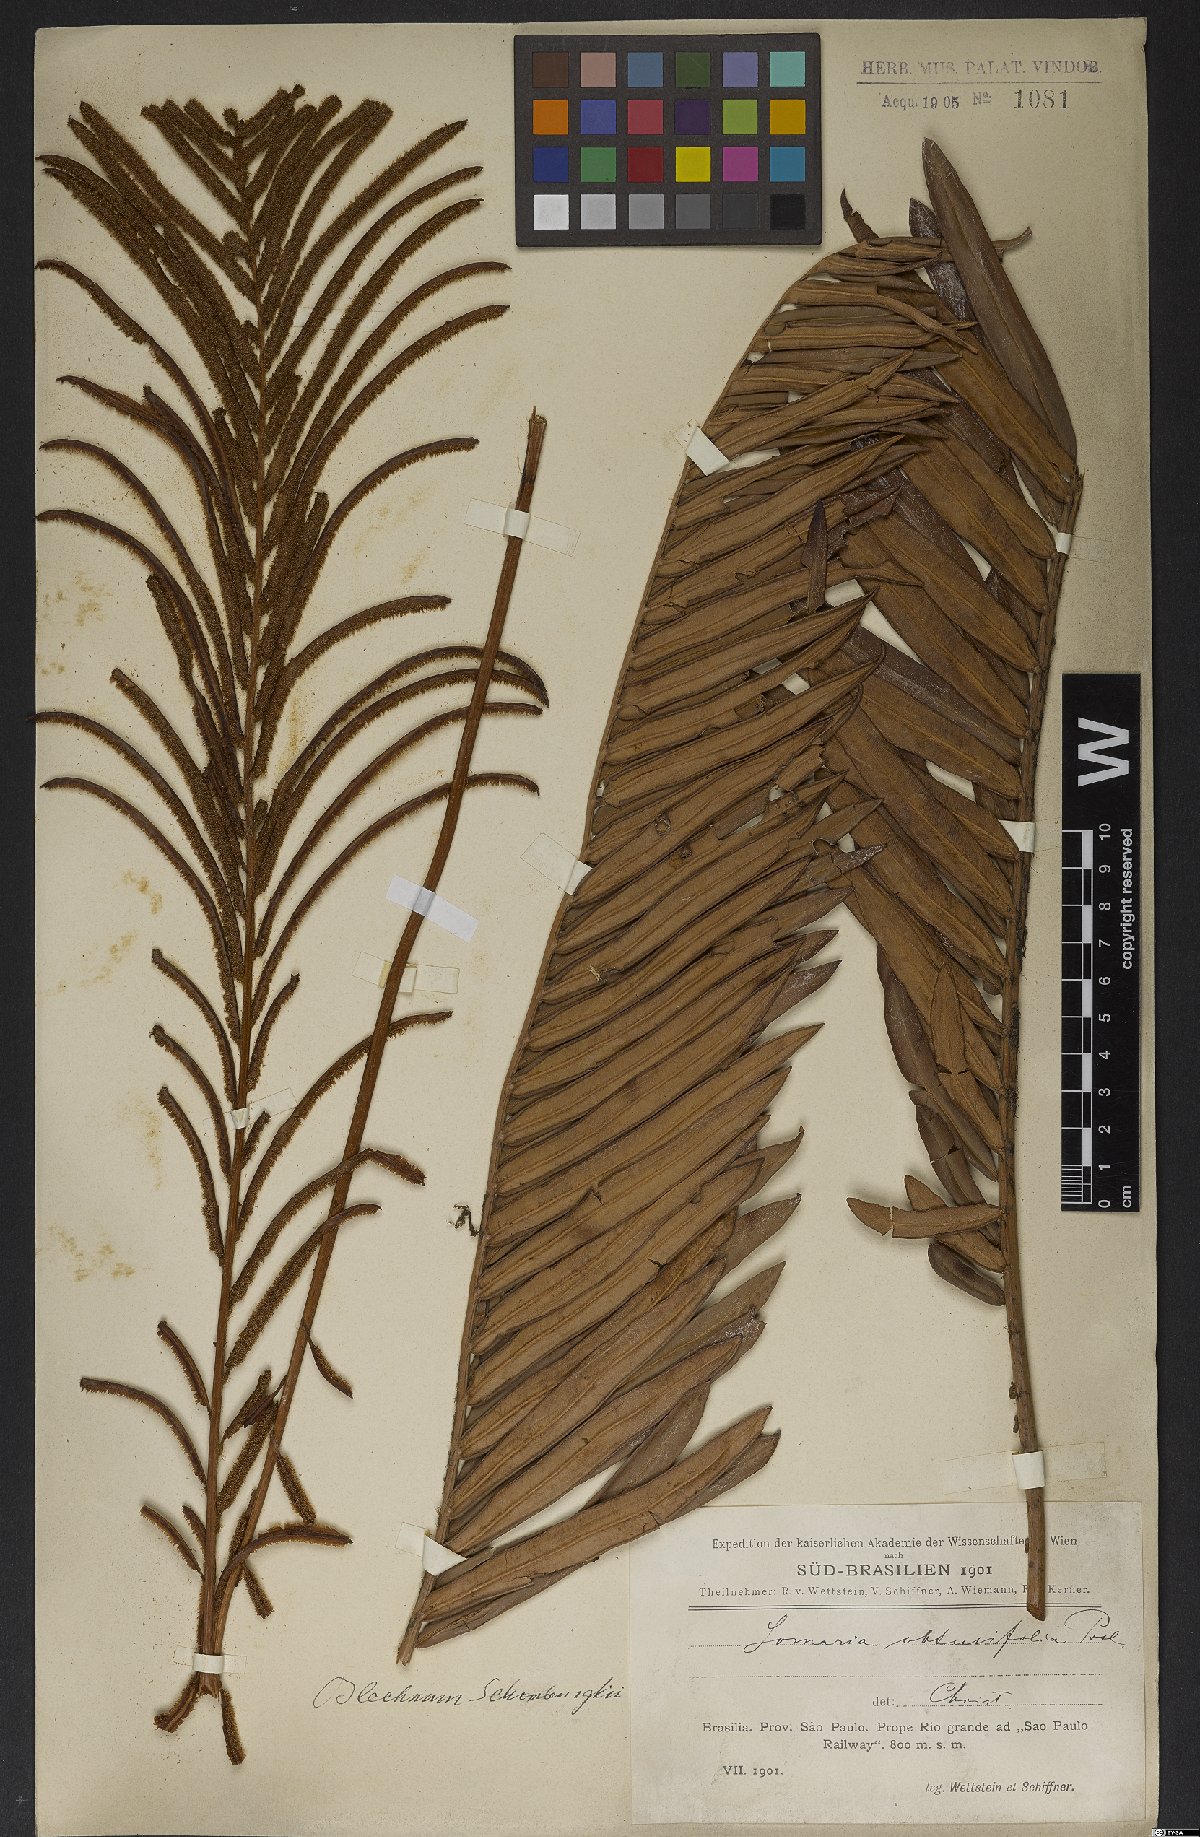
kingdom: Plantae
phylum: Tracheophyta
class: Polypodiopsida
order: Polypodiales
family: Blechnaceae
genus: Lomariocycas
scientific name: Lomariocycas schomburgkii
